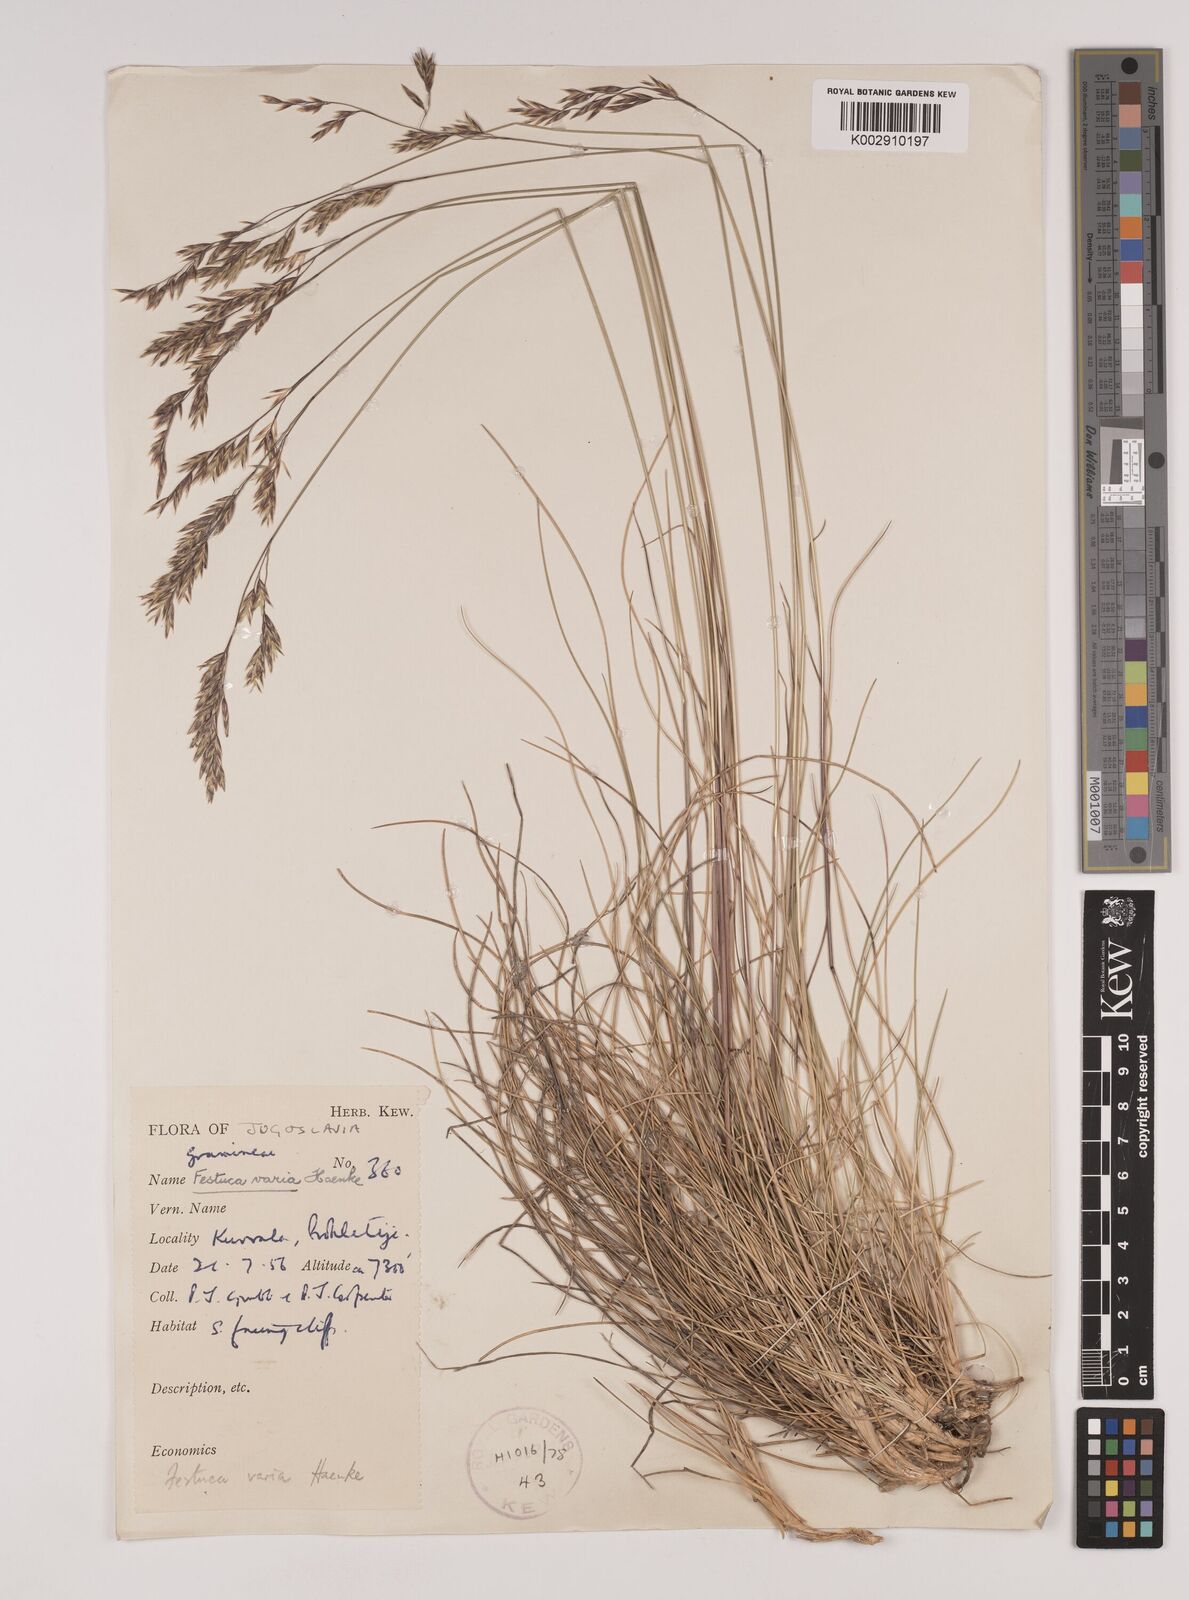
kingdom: Plantae
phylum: Tracheophyta
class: Liliopsida
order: Poales
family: Poaceae
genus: Festuca
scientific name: Festuca varia
